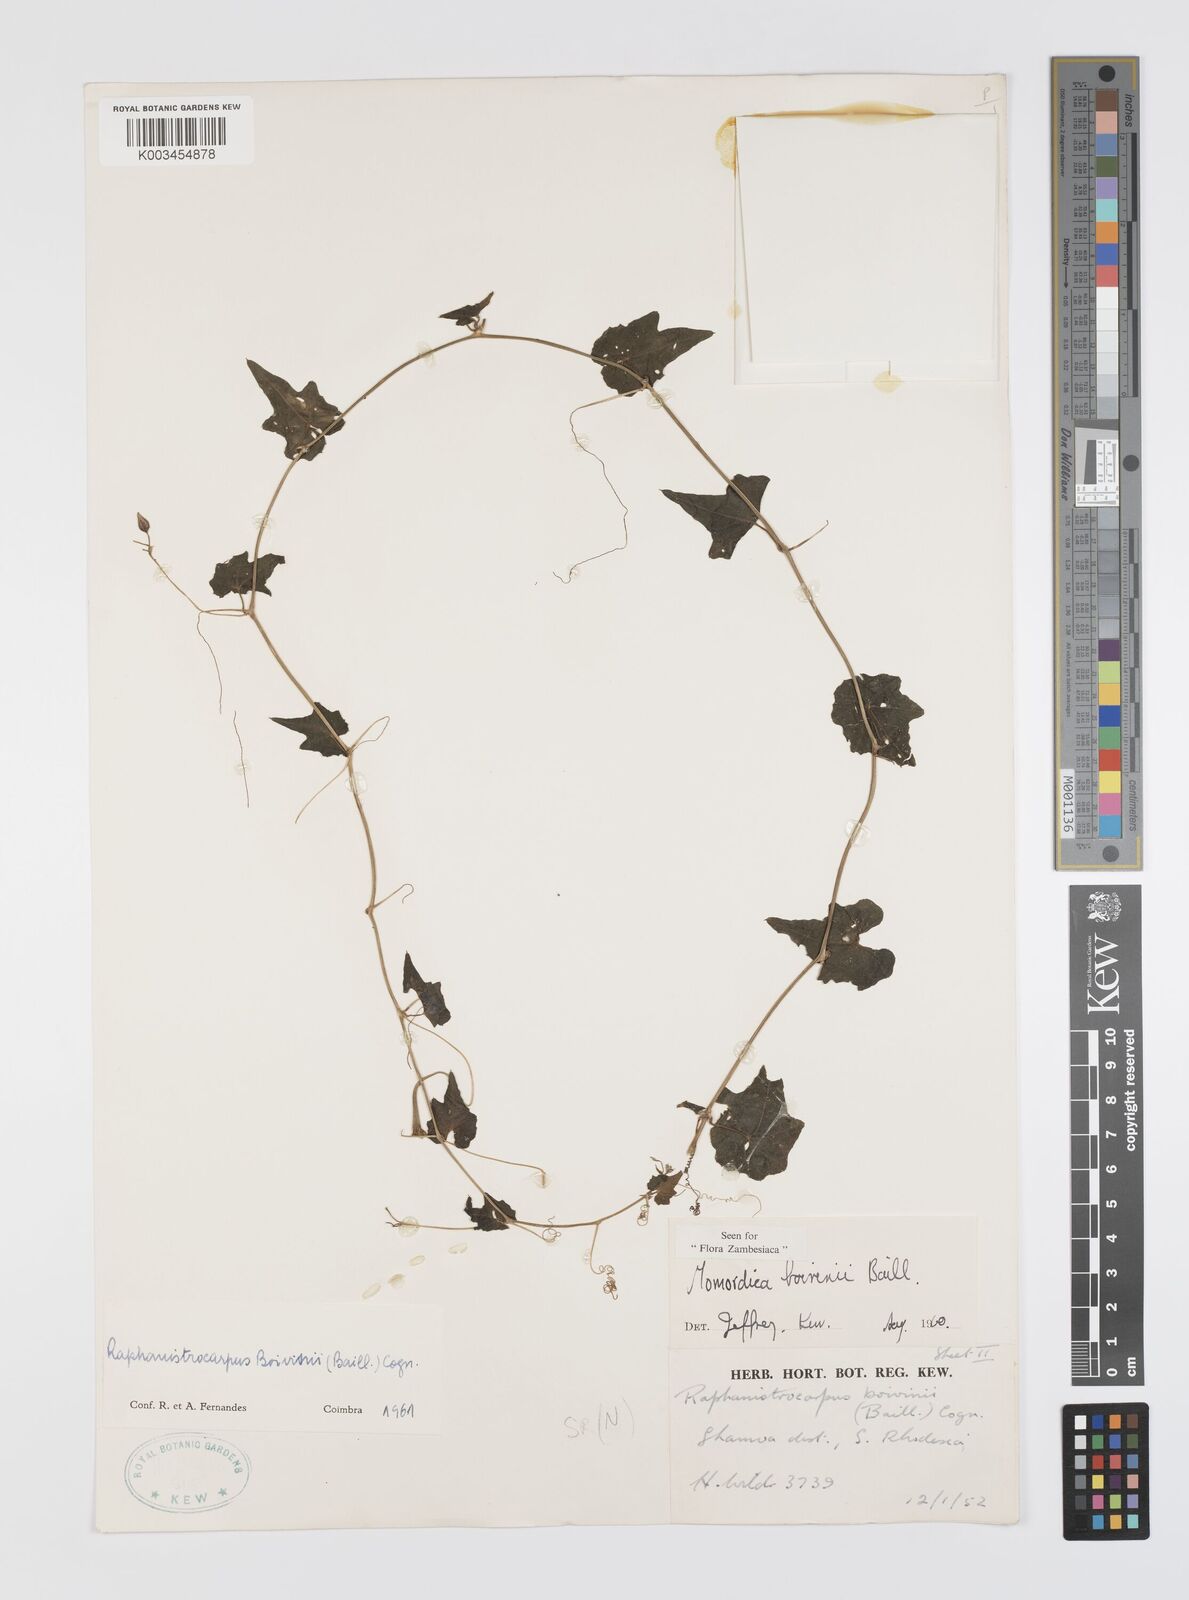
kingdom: Plantae
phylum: Tracheophyta
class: Magnoliopsida
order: Cucurbitales
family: Cucurbitaceae
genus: Momordica
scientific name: Momordica boivinii
